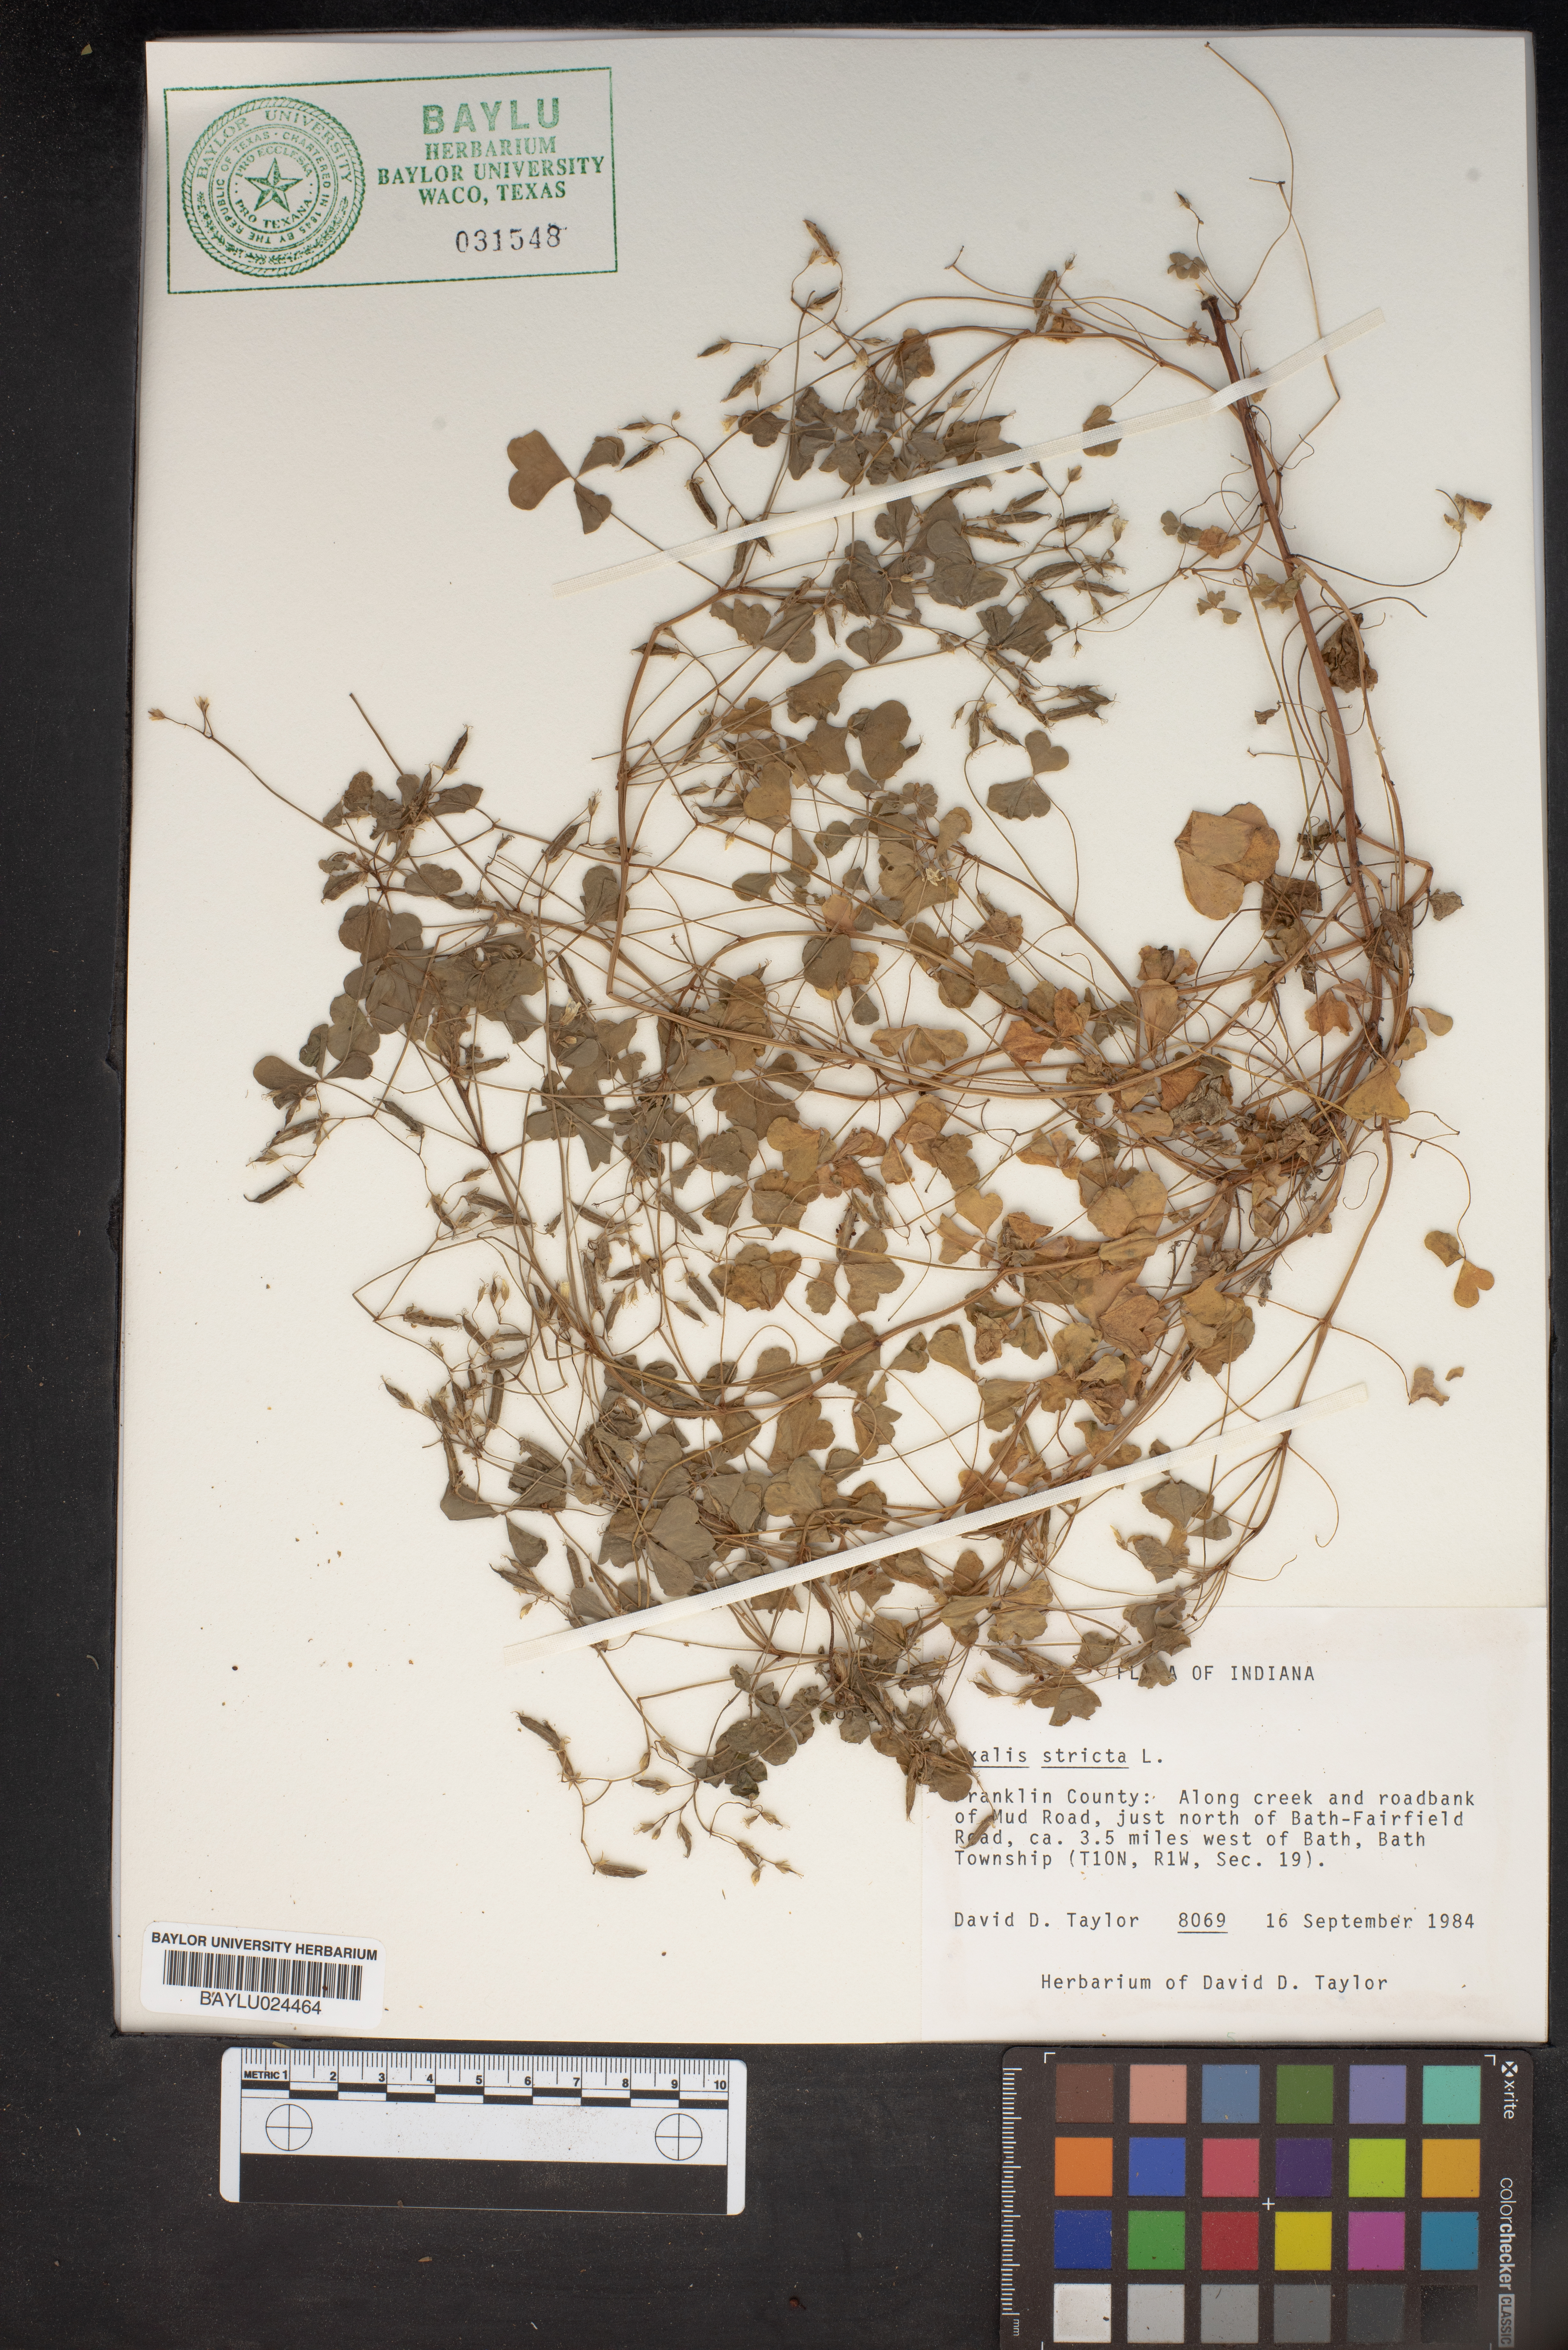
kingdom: Plantae
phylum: Tracheophyta
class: Magnoliopsida
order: Oxalidales
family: Oxalidaceae
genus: Oxalis
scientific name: Oxalis stricta
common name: Upright yellow-sorrel
